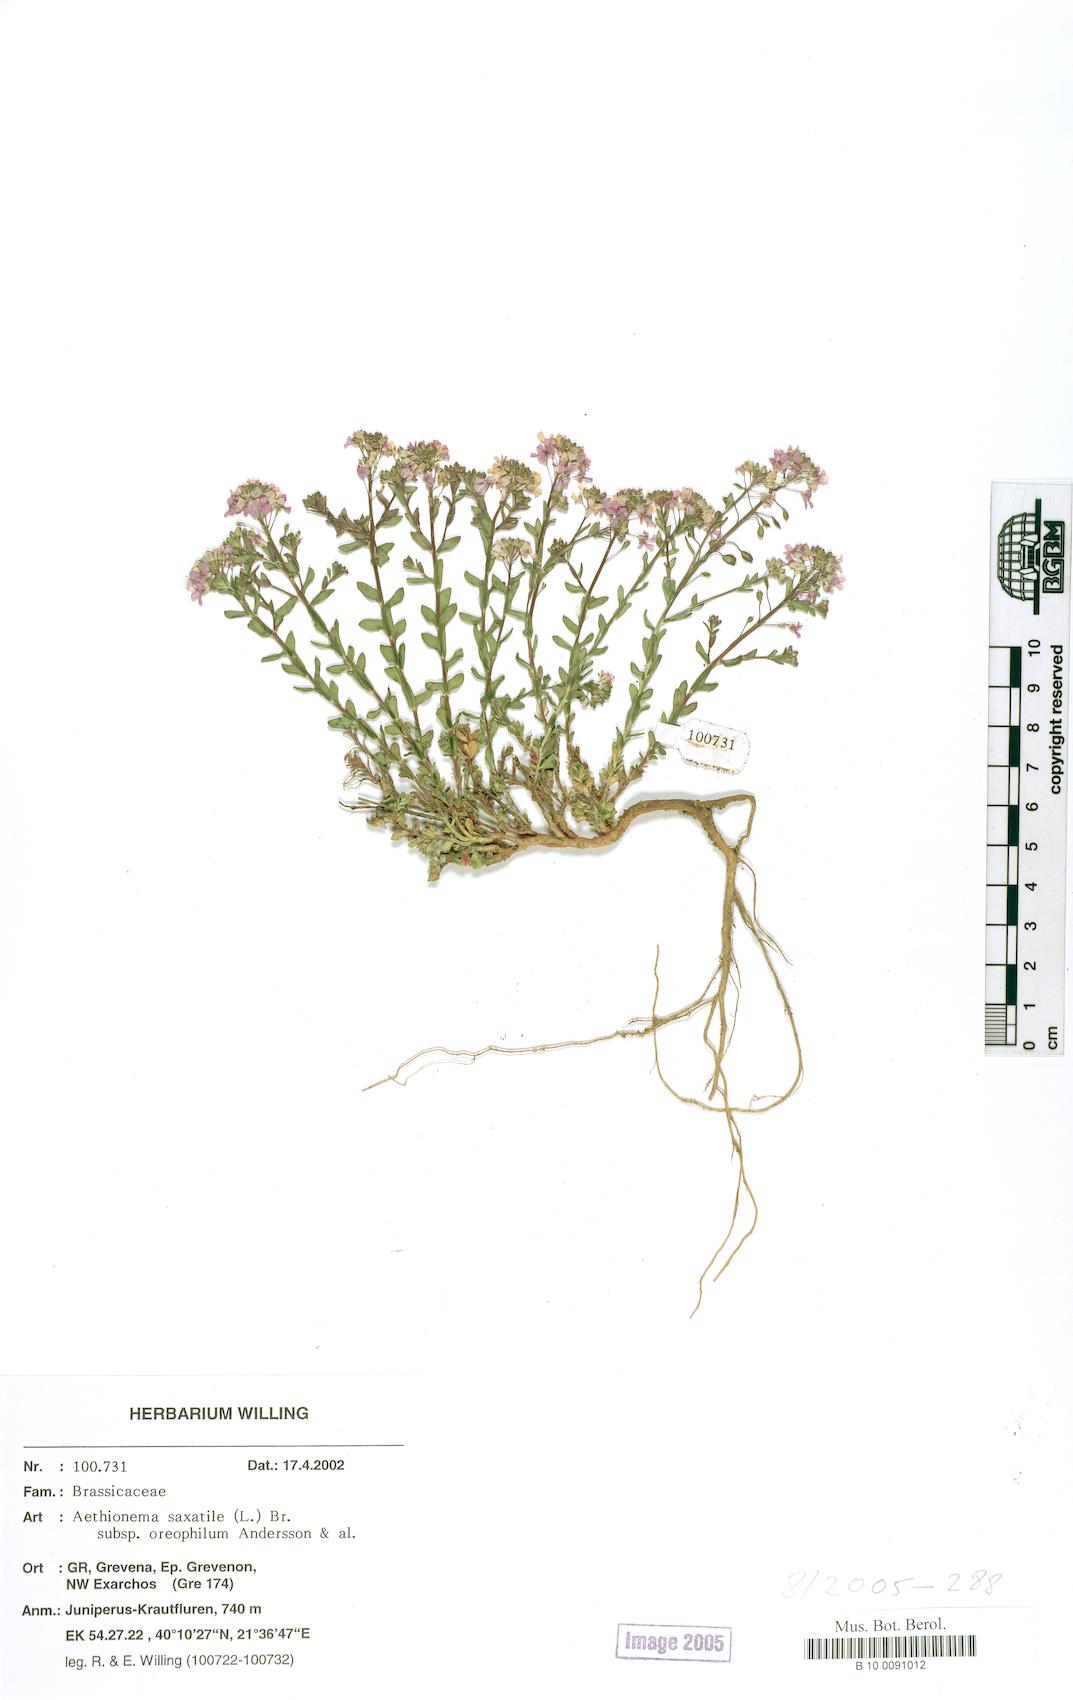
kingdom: Plantae
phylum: Tracheophyta
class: Magnoliopsida
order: Brassicales
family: Brassicaceae
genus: Aethionema
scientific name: Aethionema saxatile
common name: Burnt candytuft
